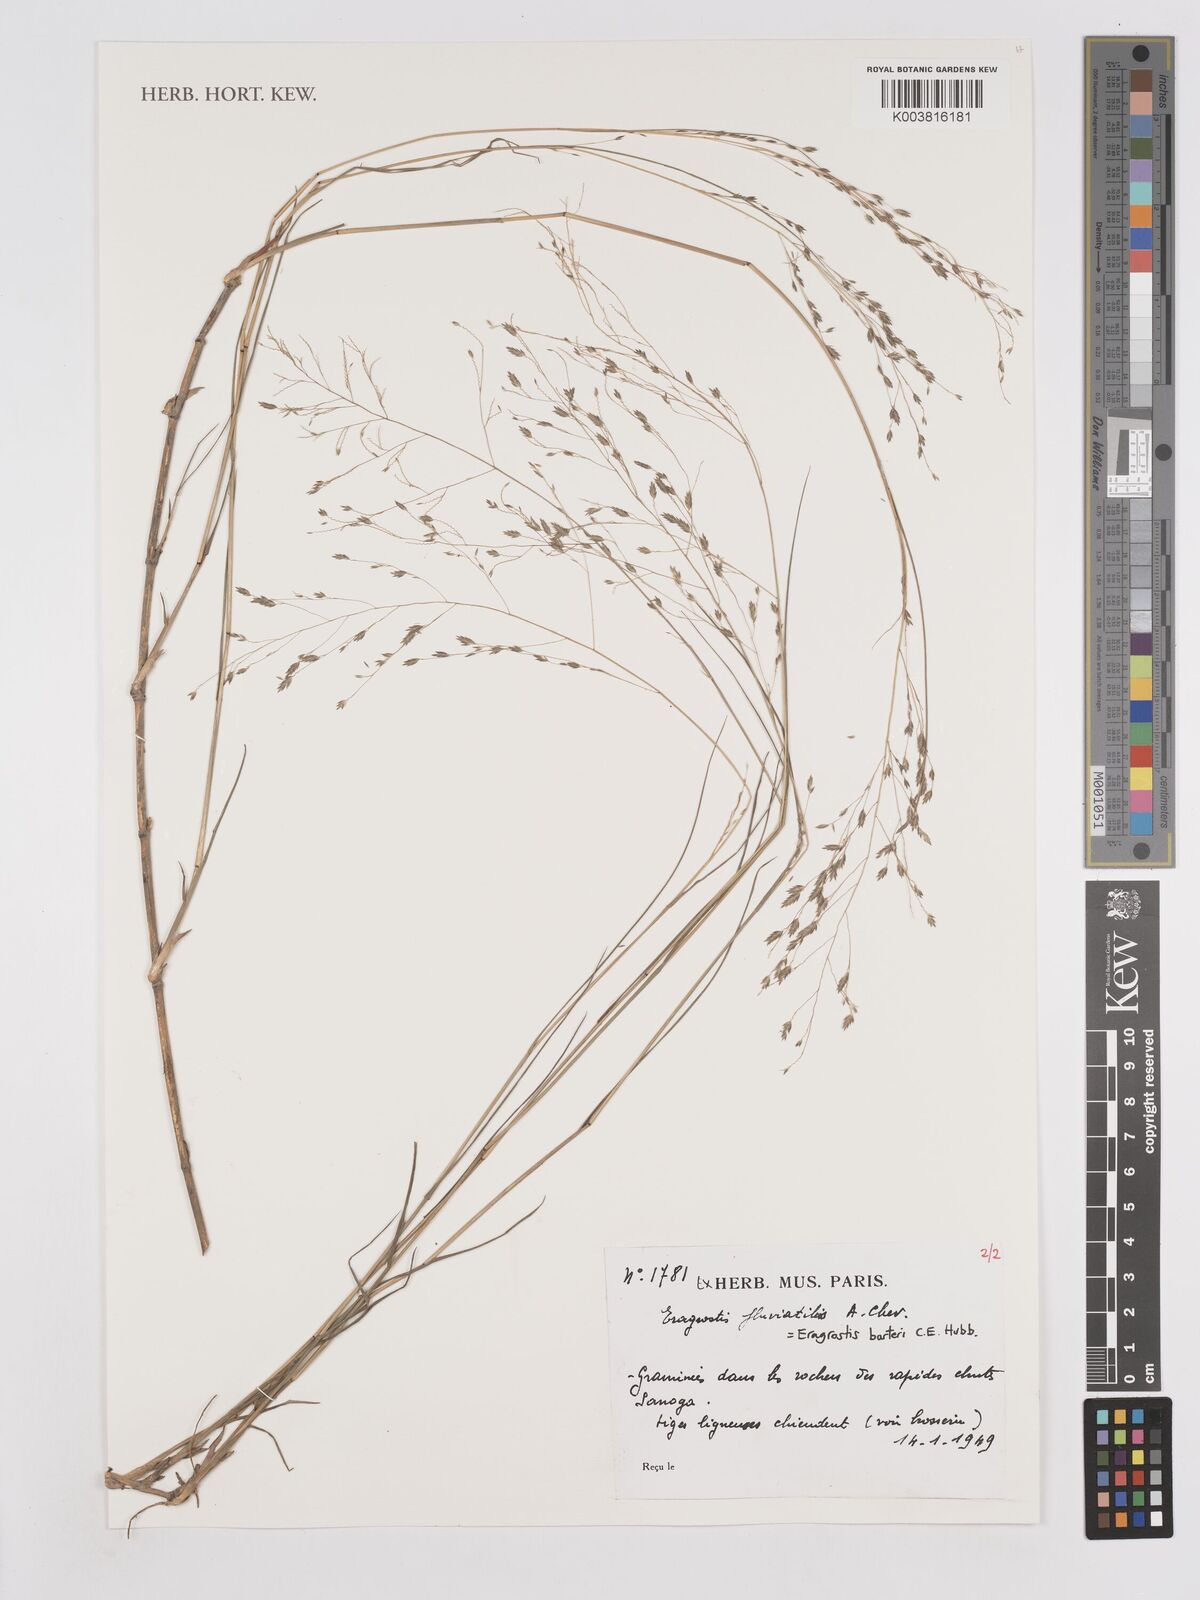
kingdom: Plantae
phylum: Tracheophyta
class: Liliopsida
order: Poales
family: Poaceae
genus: Eragrostis
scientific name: Eragrostis barteri
